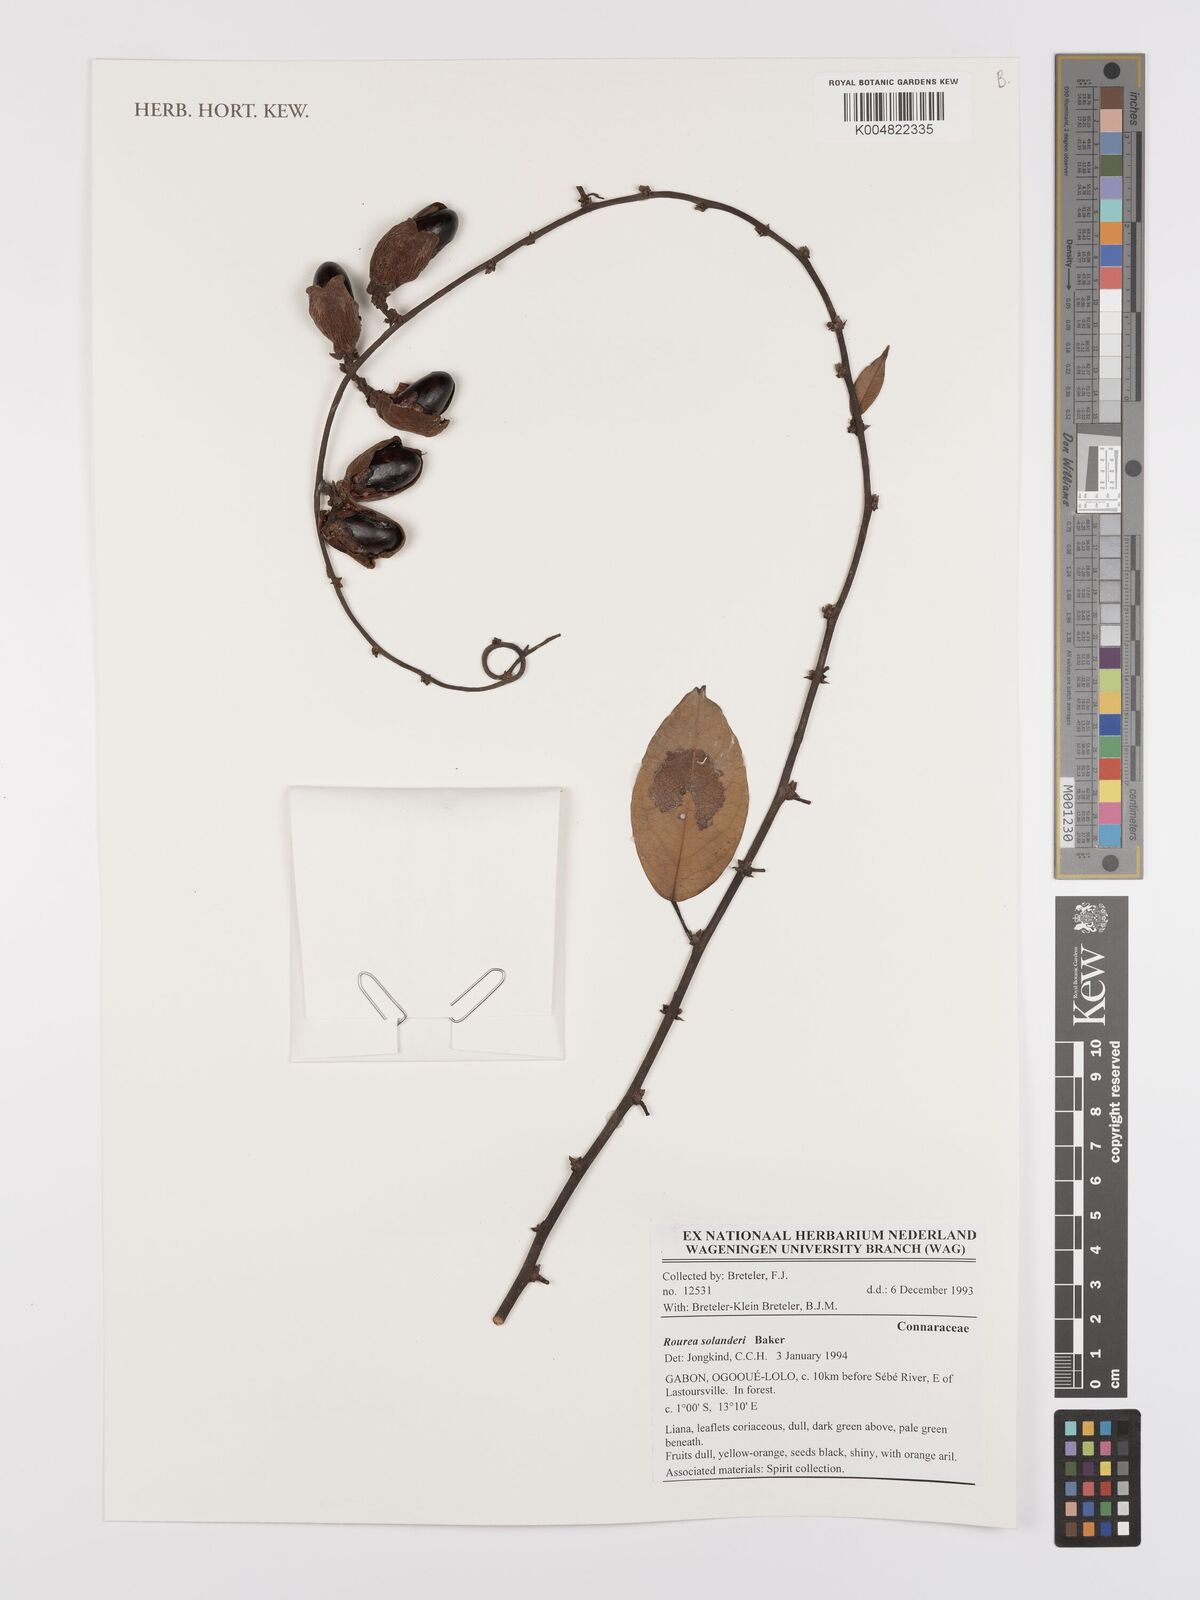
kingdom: Plantae
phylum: Tracheophyta
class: Magnoliopsida
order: Oxalidales
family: Connaraceae
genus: Rourea
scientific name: Rourea solanderi
